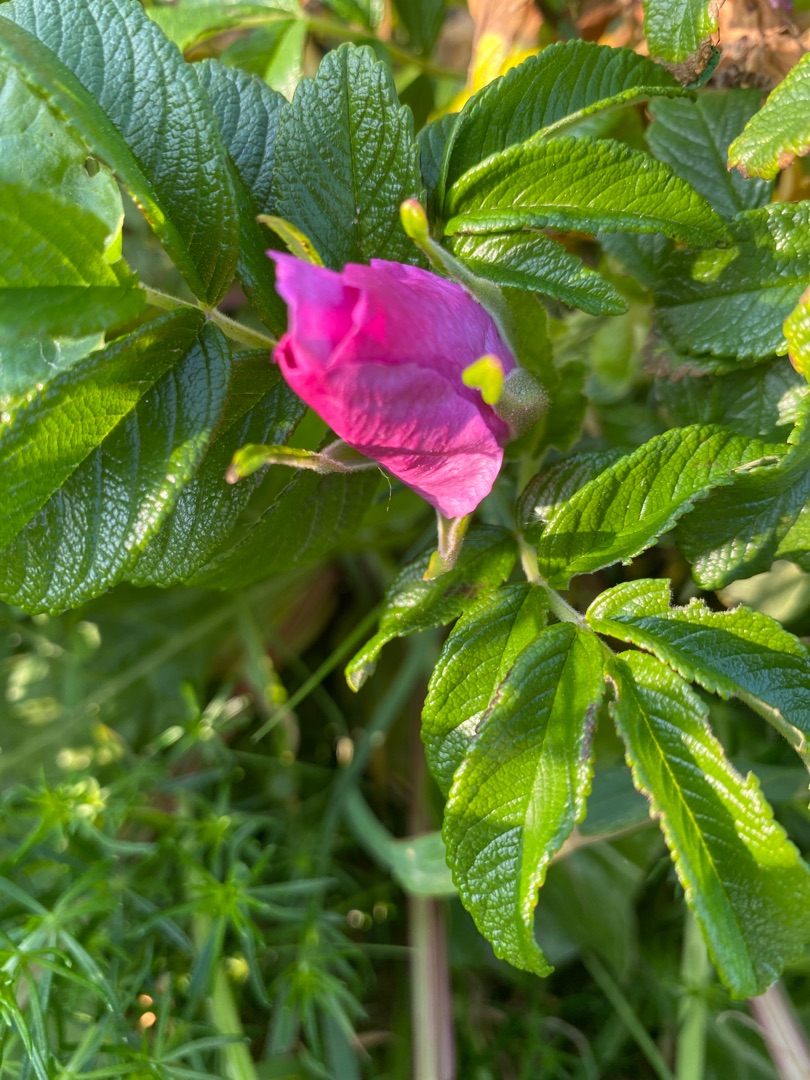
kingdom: Plantae
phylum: Tracheophyta
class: Magnoliopsida
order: Rosales
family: Rosaceae
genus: Rosa
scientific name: Rosa rugosa
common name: Rynket rose
